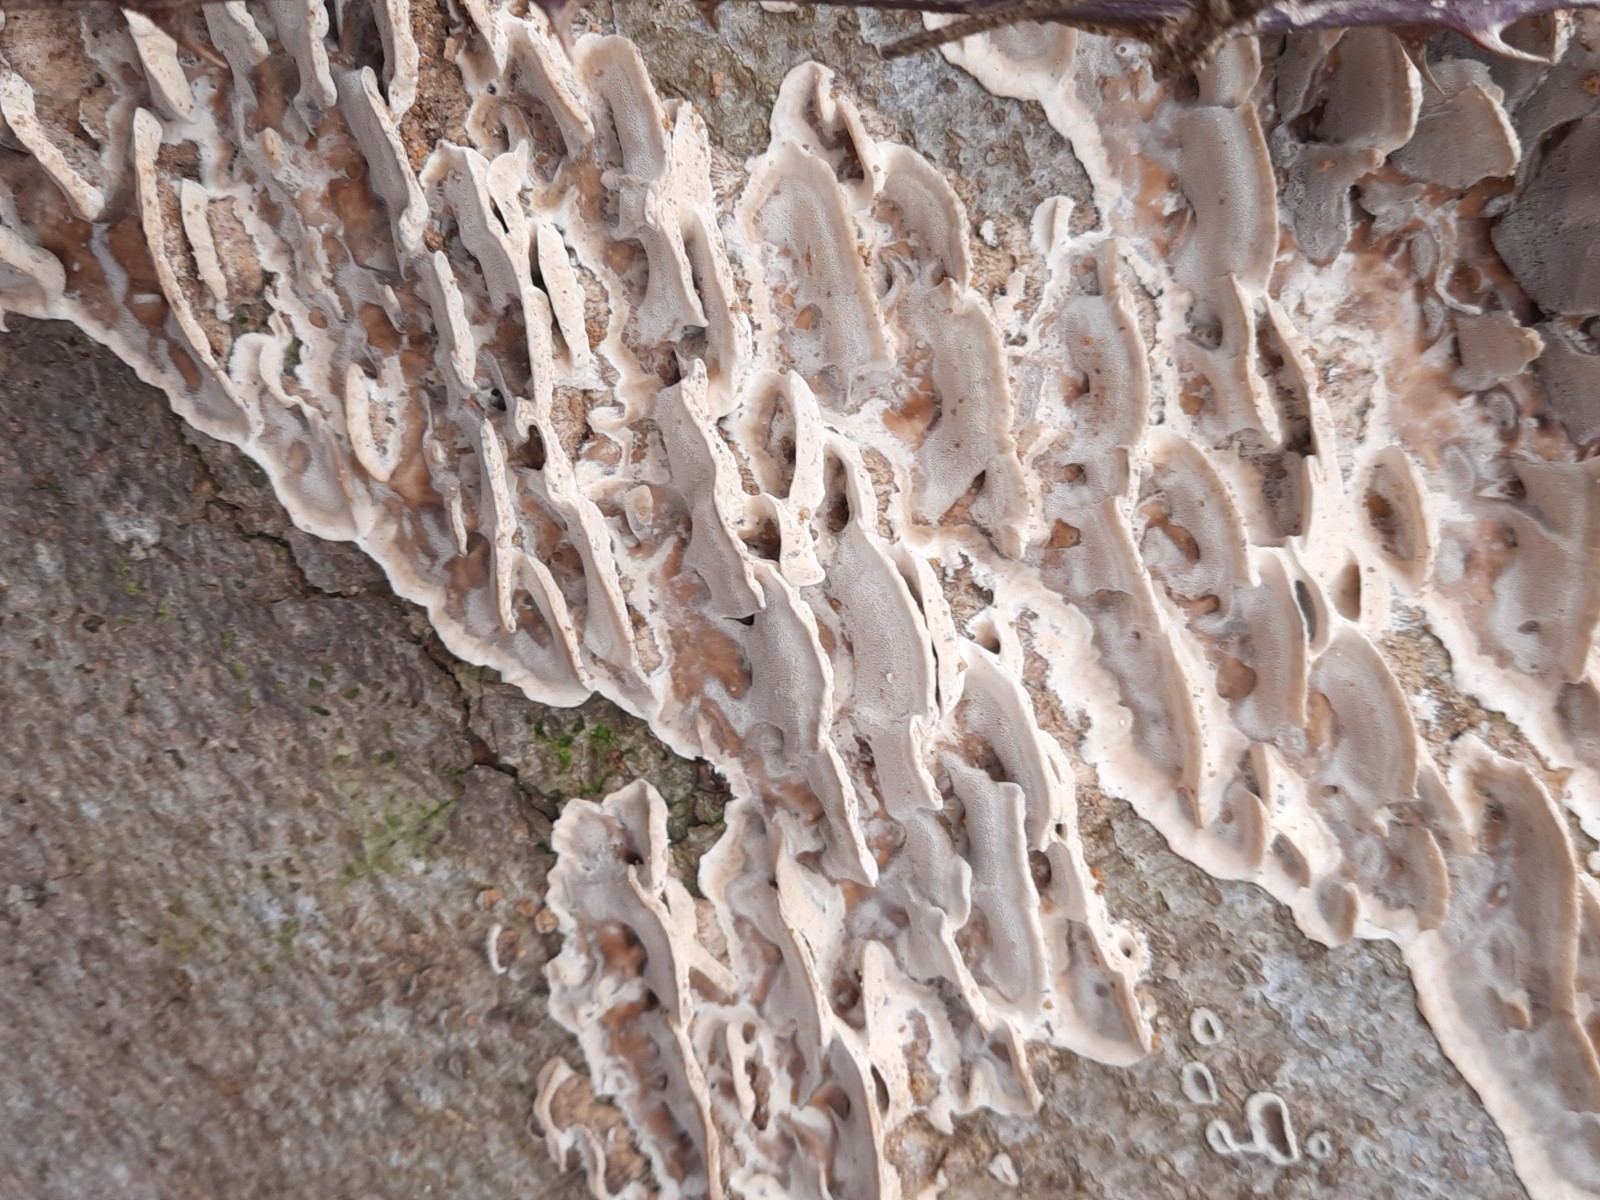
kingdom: Fungi
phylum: Basidiomycota
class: Agaricomycetes
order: Polyporales
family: Phanerochaetaceae
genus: Bjerkandera
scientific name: Bjerkandera adusta
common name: sveden sodporesvamp
